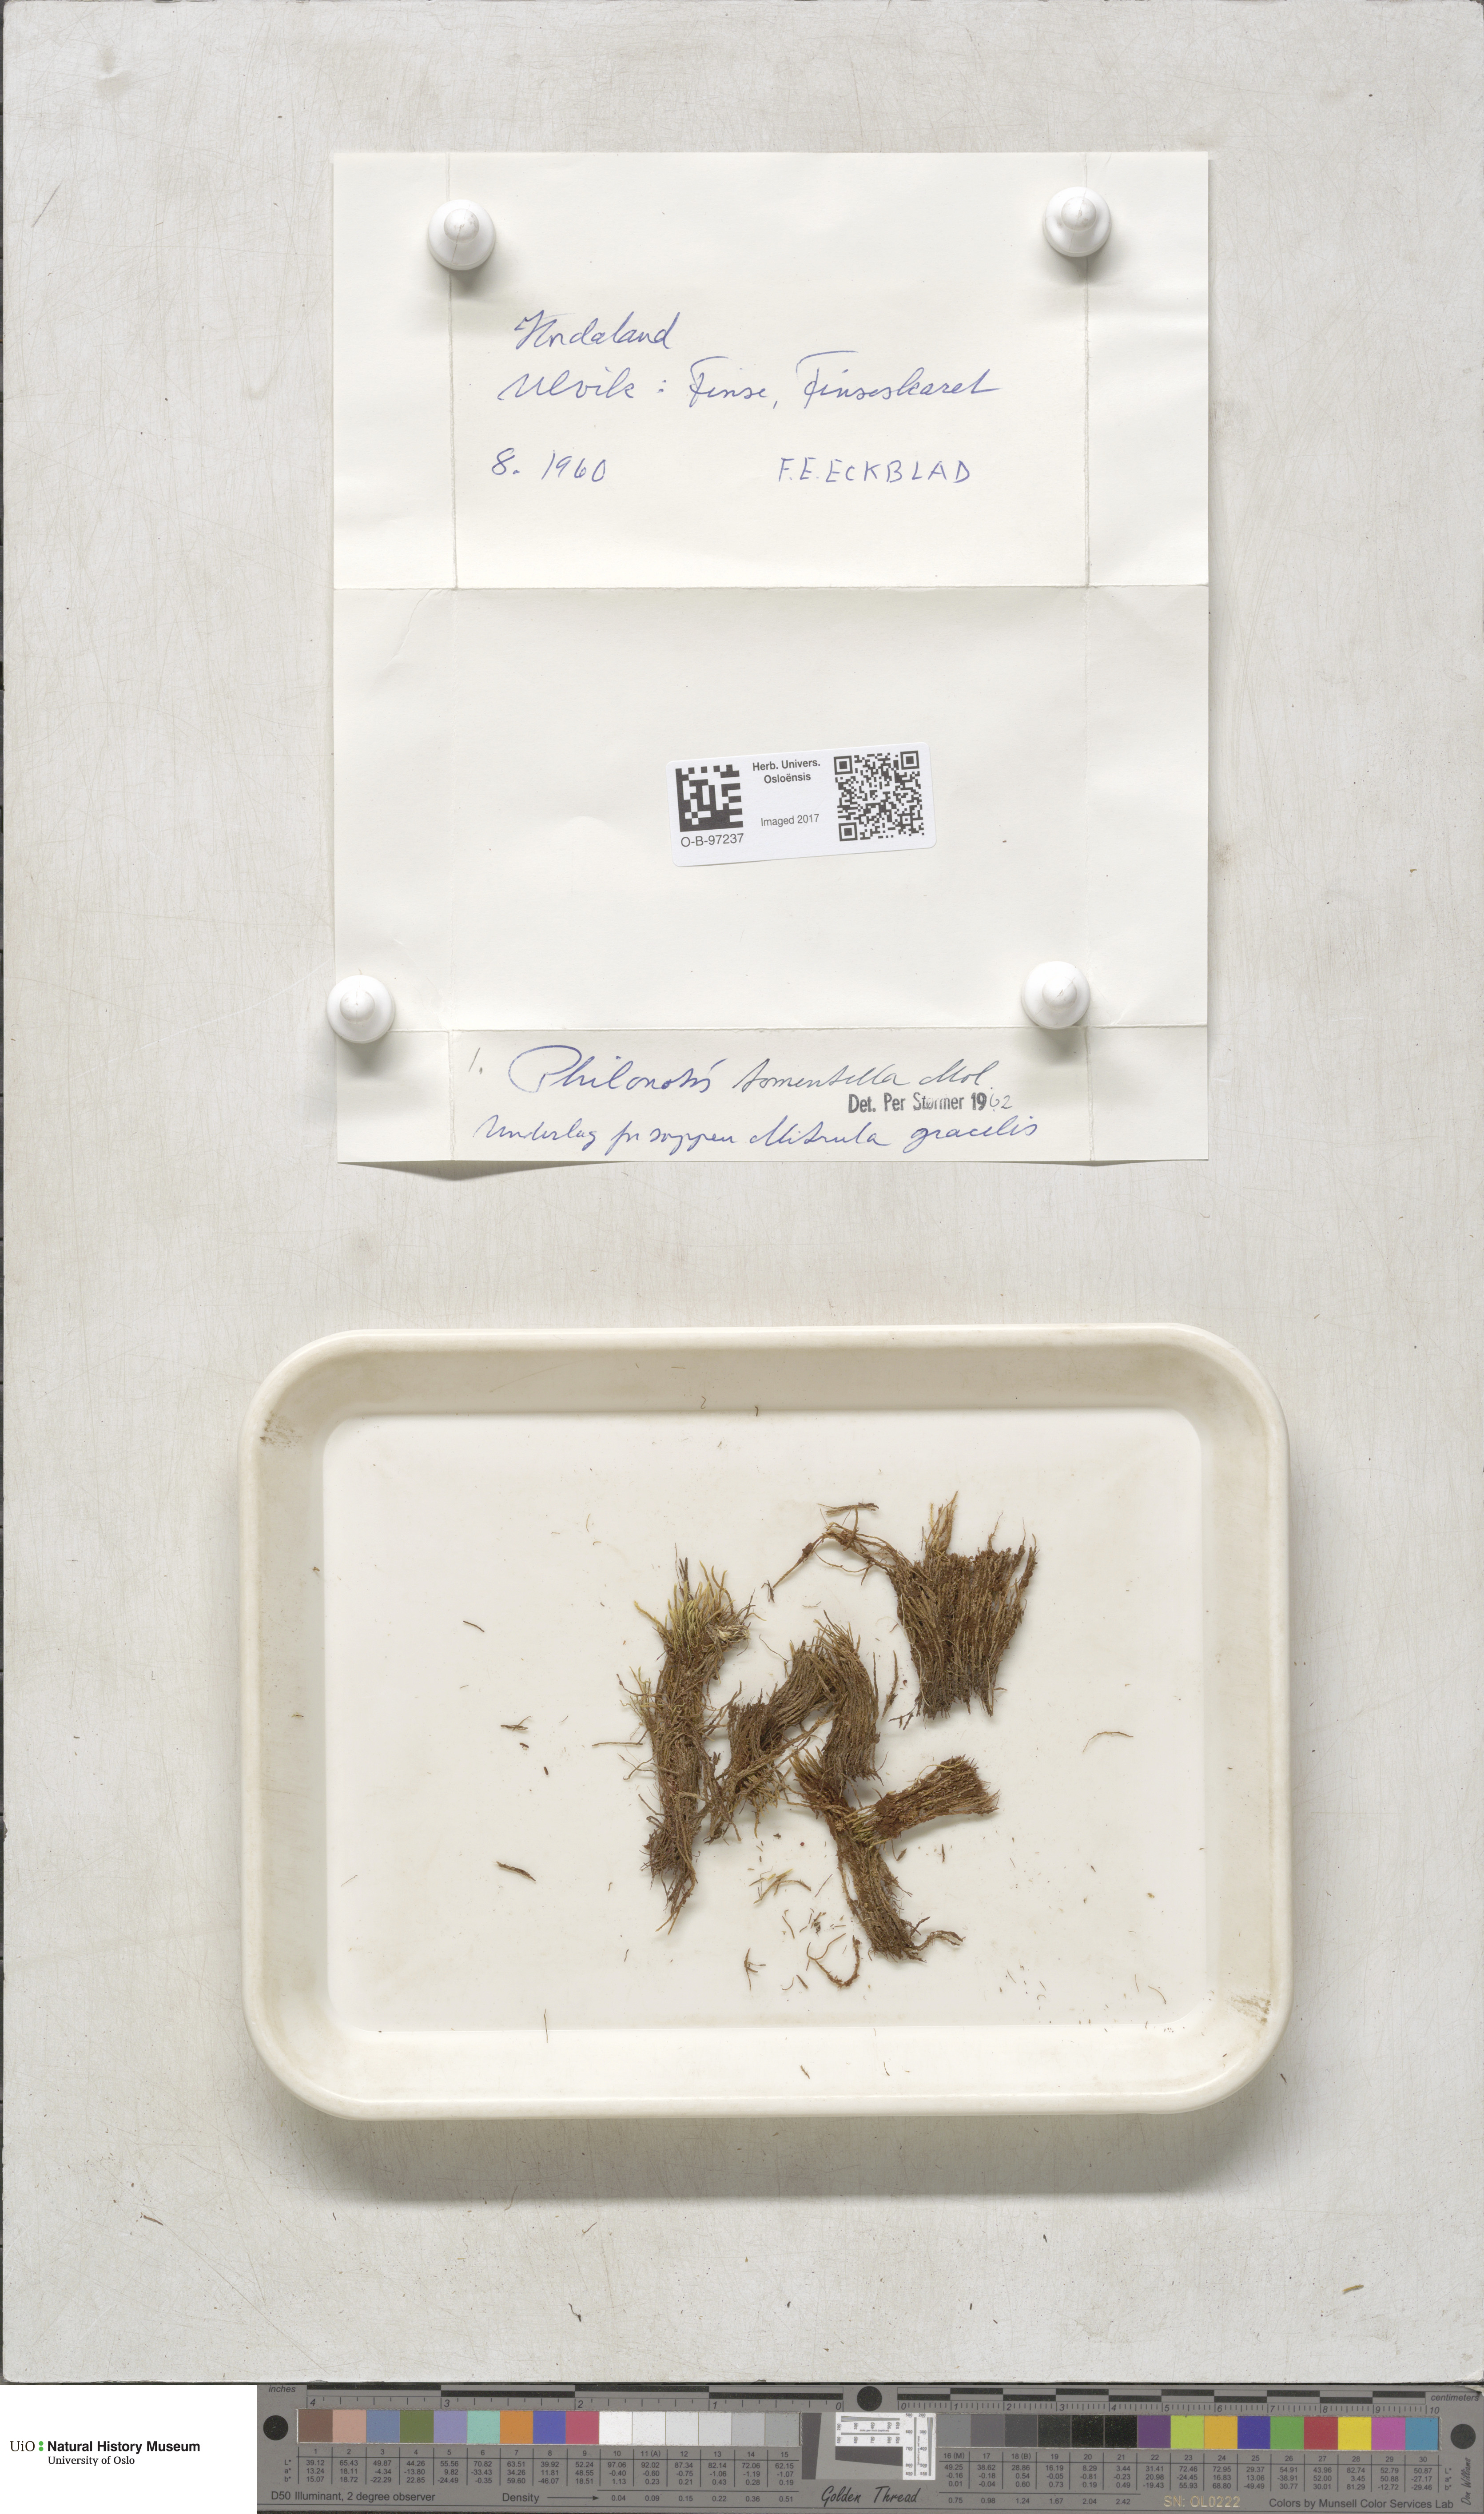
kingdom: Plantae
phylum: Bryophyta
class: Bryopsida
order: Bartramiales
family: Bartramiaceae
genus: Philonotis
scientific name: Philonotis tomentella
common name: Woolly apple moss
